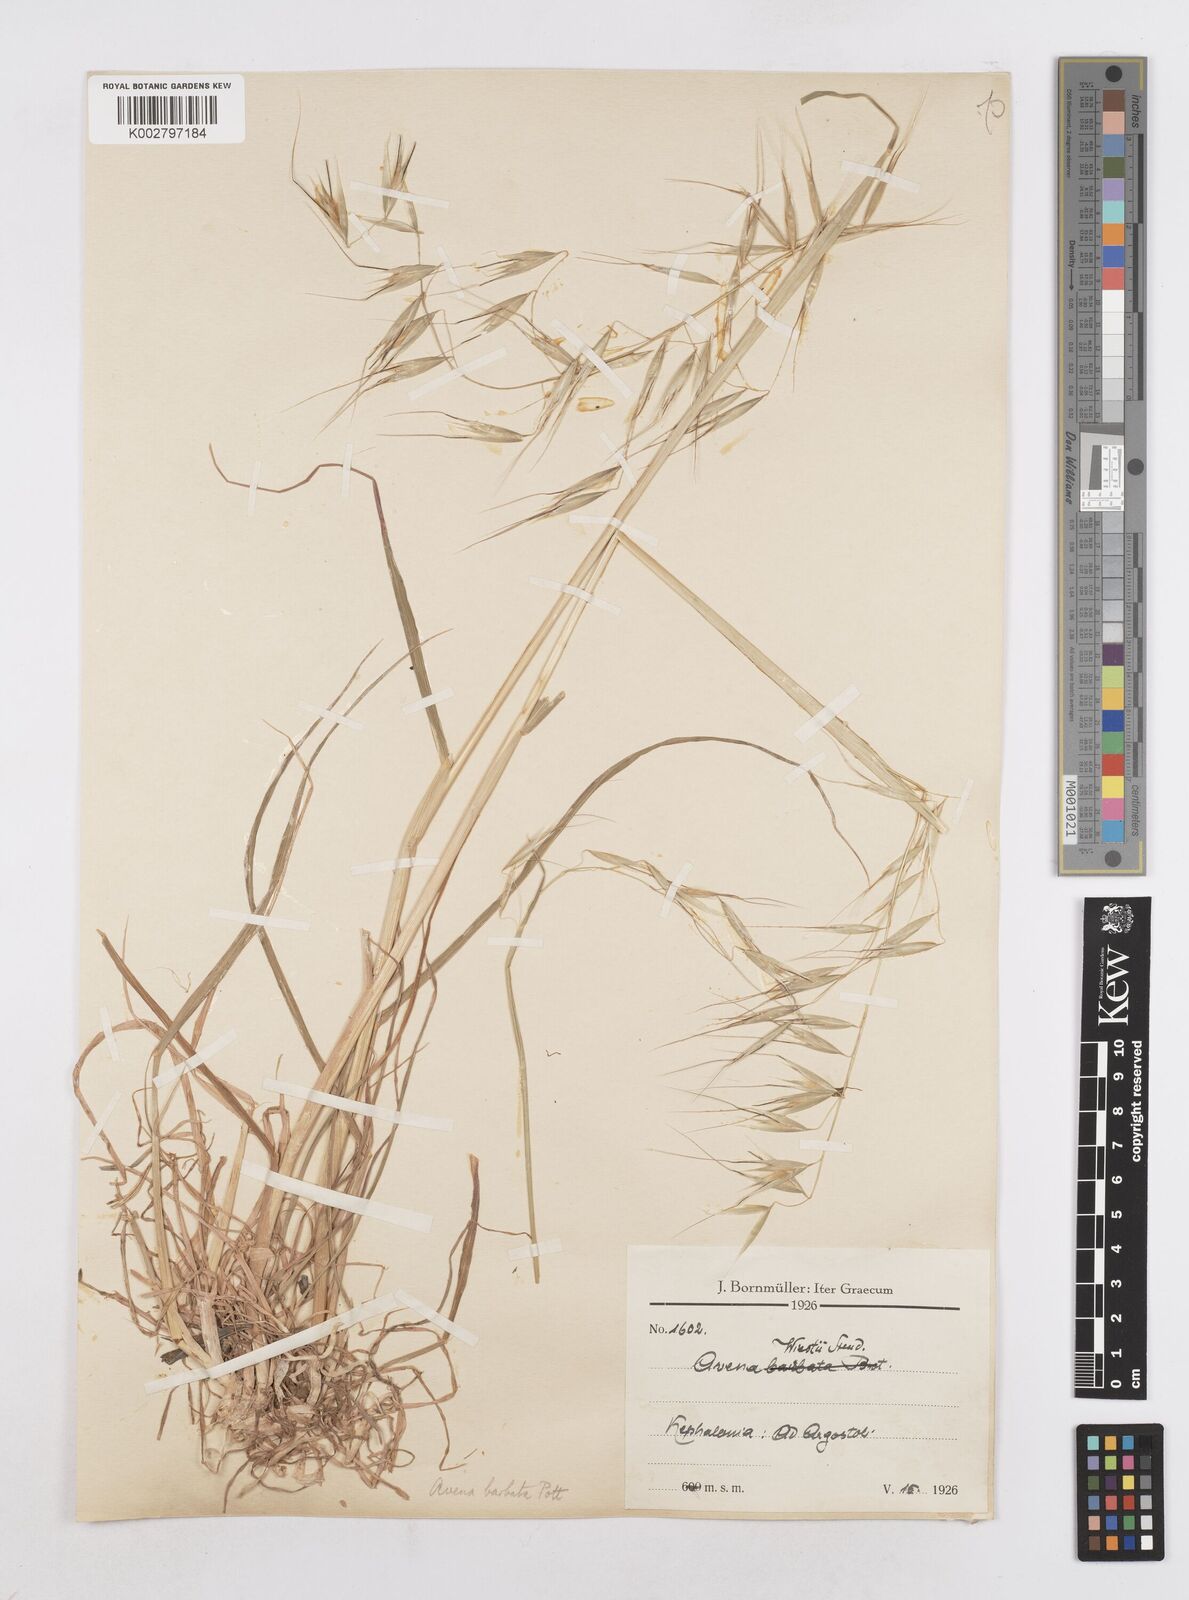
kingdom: Plantae
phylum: Tracheophyta
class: Liliopsida
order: Poales
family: Poaceae
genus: Avena
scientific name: Avena
